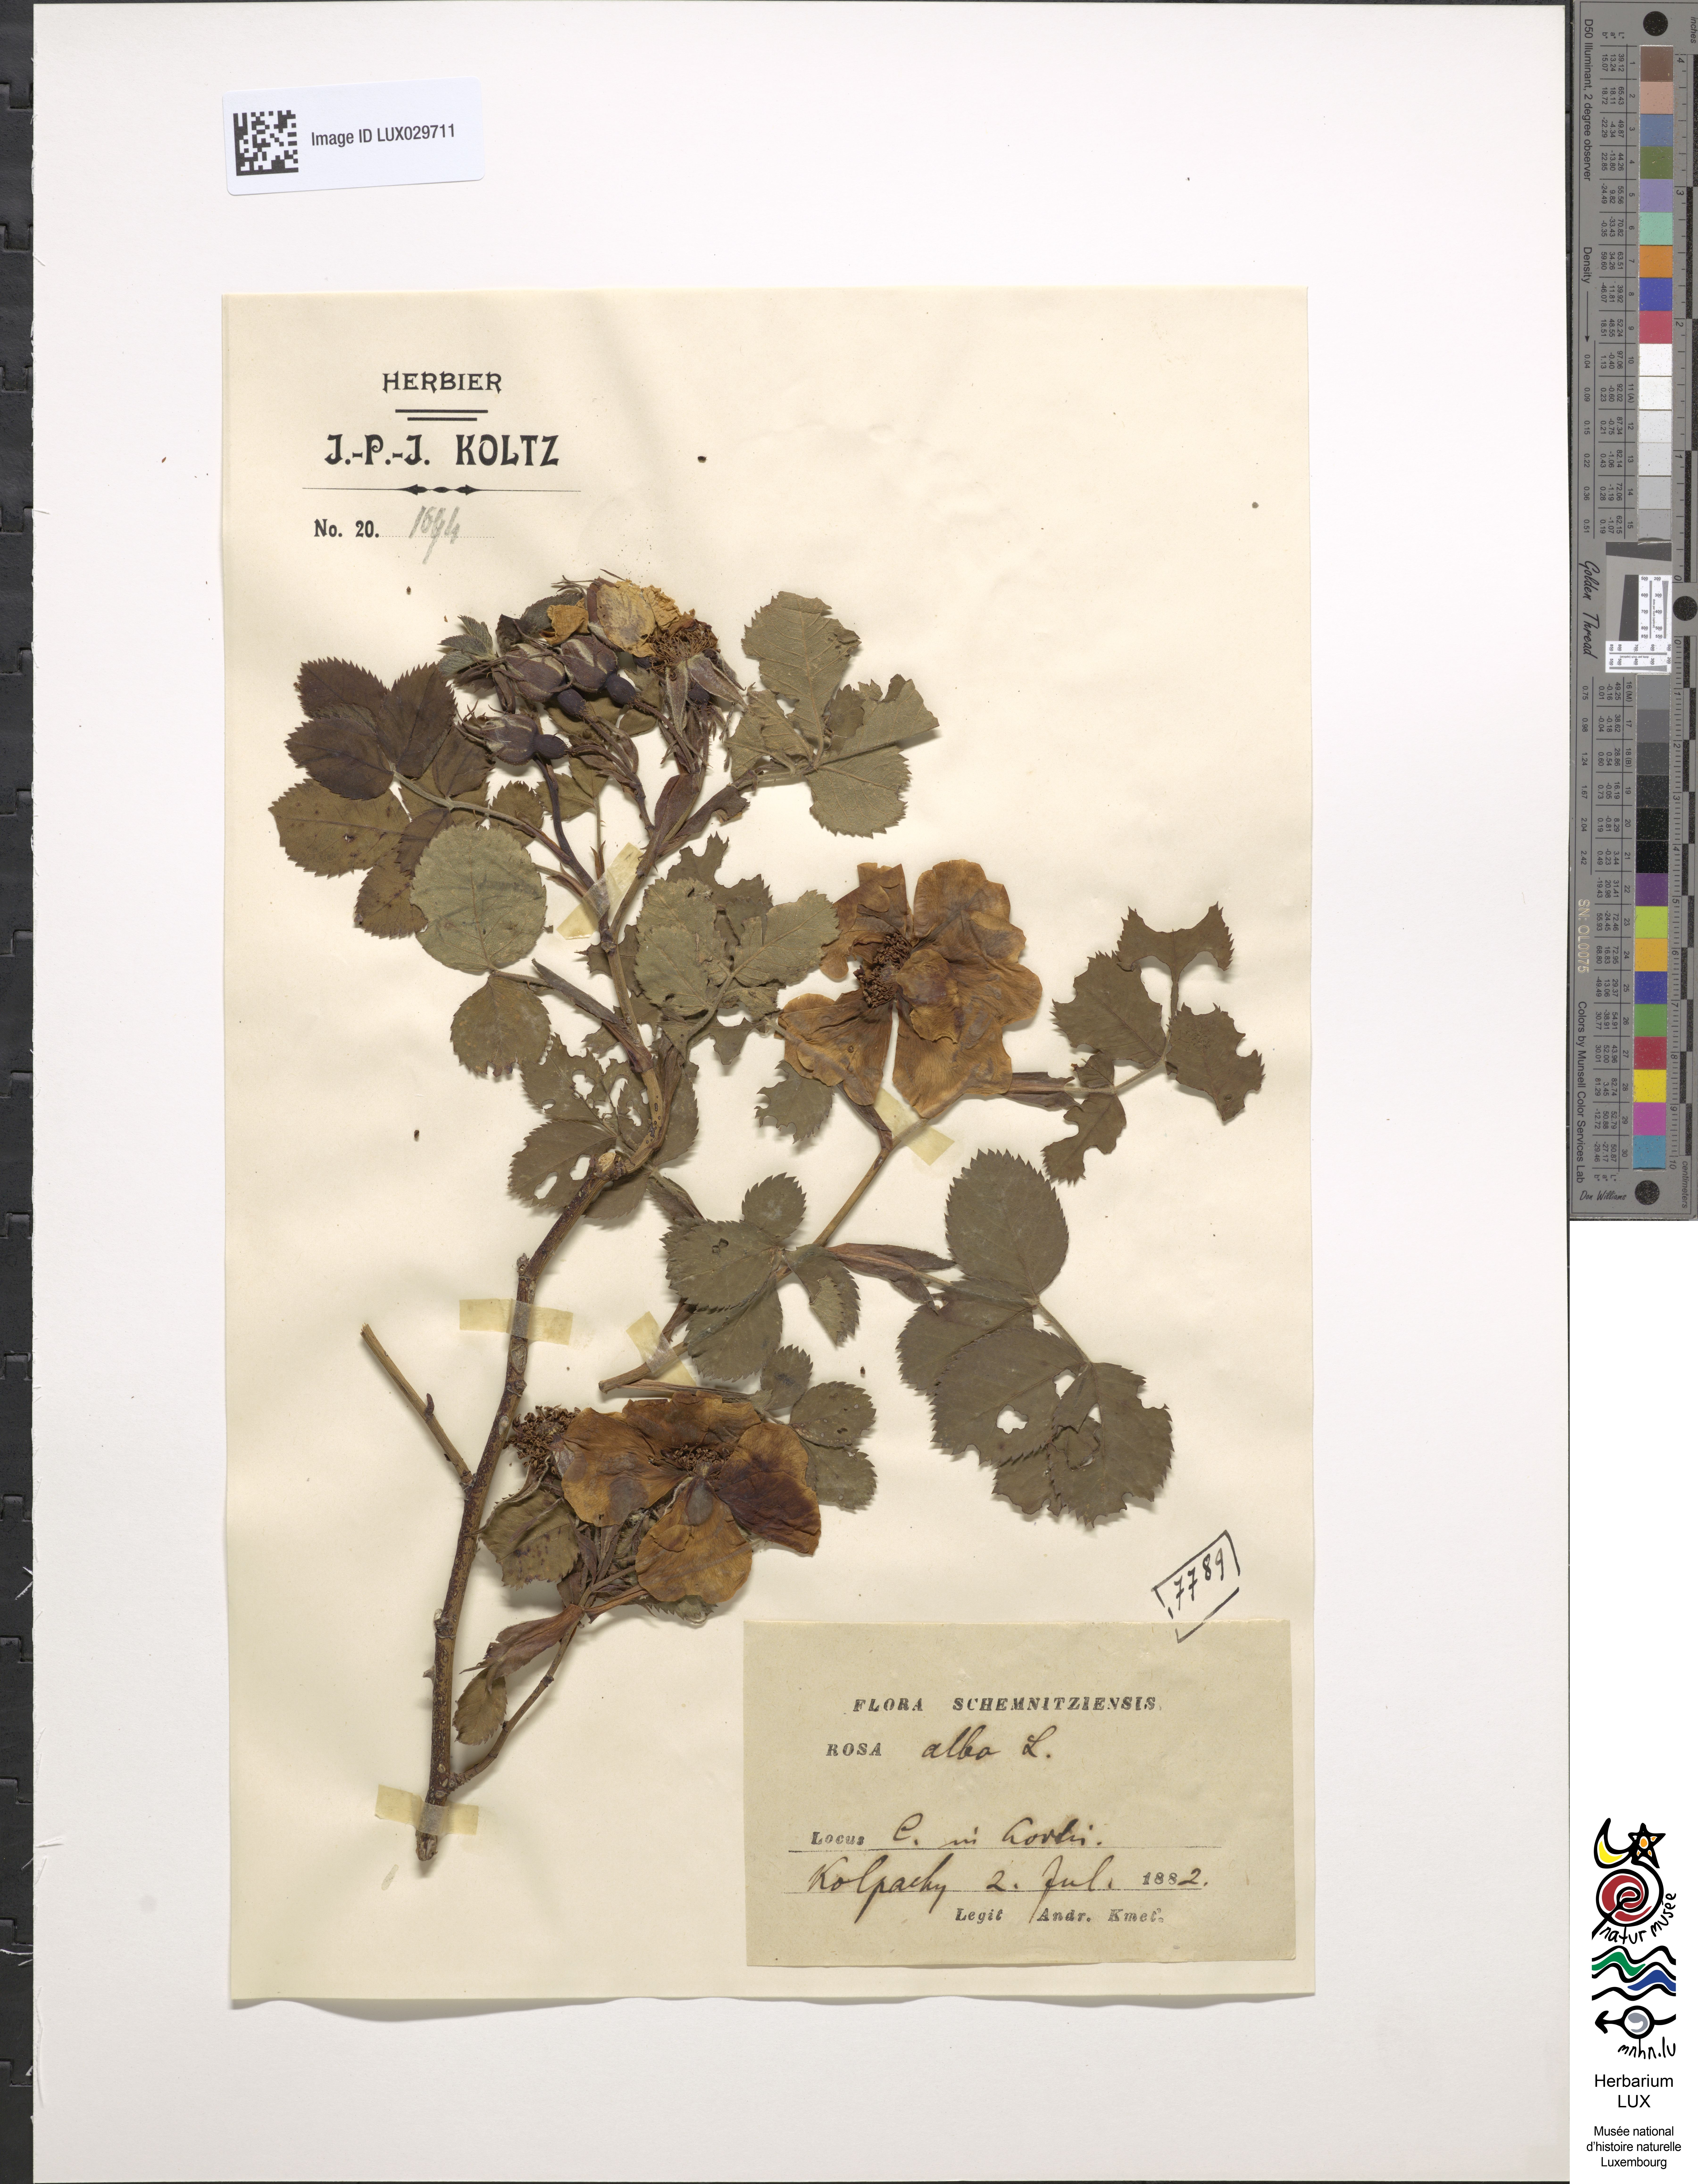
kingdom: Plantae
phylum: Tracheophyta
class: Magnoliopsida
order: Rosales
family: Rosaceae
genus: Rosa
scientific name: Rosa alba
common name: White rose
